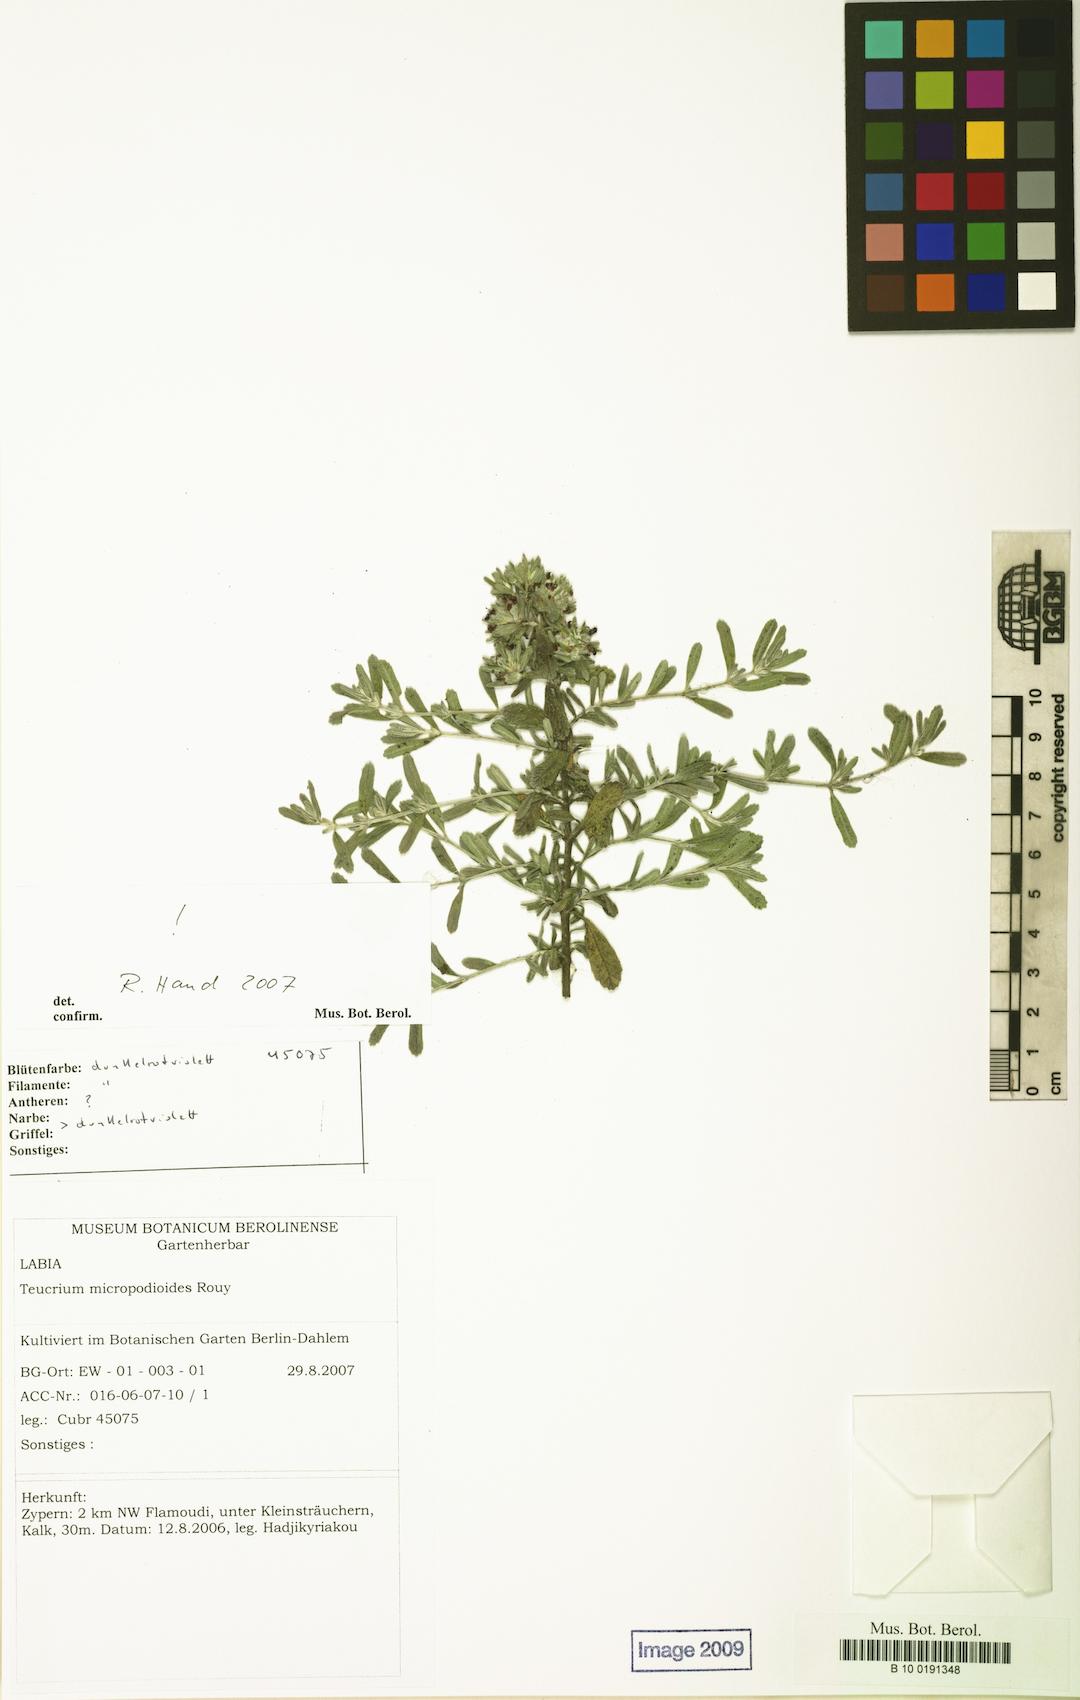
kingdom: Plantae
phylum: Tracheophyta
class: Magnoliopsida
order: Lamiales
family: Lamiaceae
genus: Teucrium
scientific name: Teucrium micropodioides
